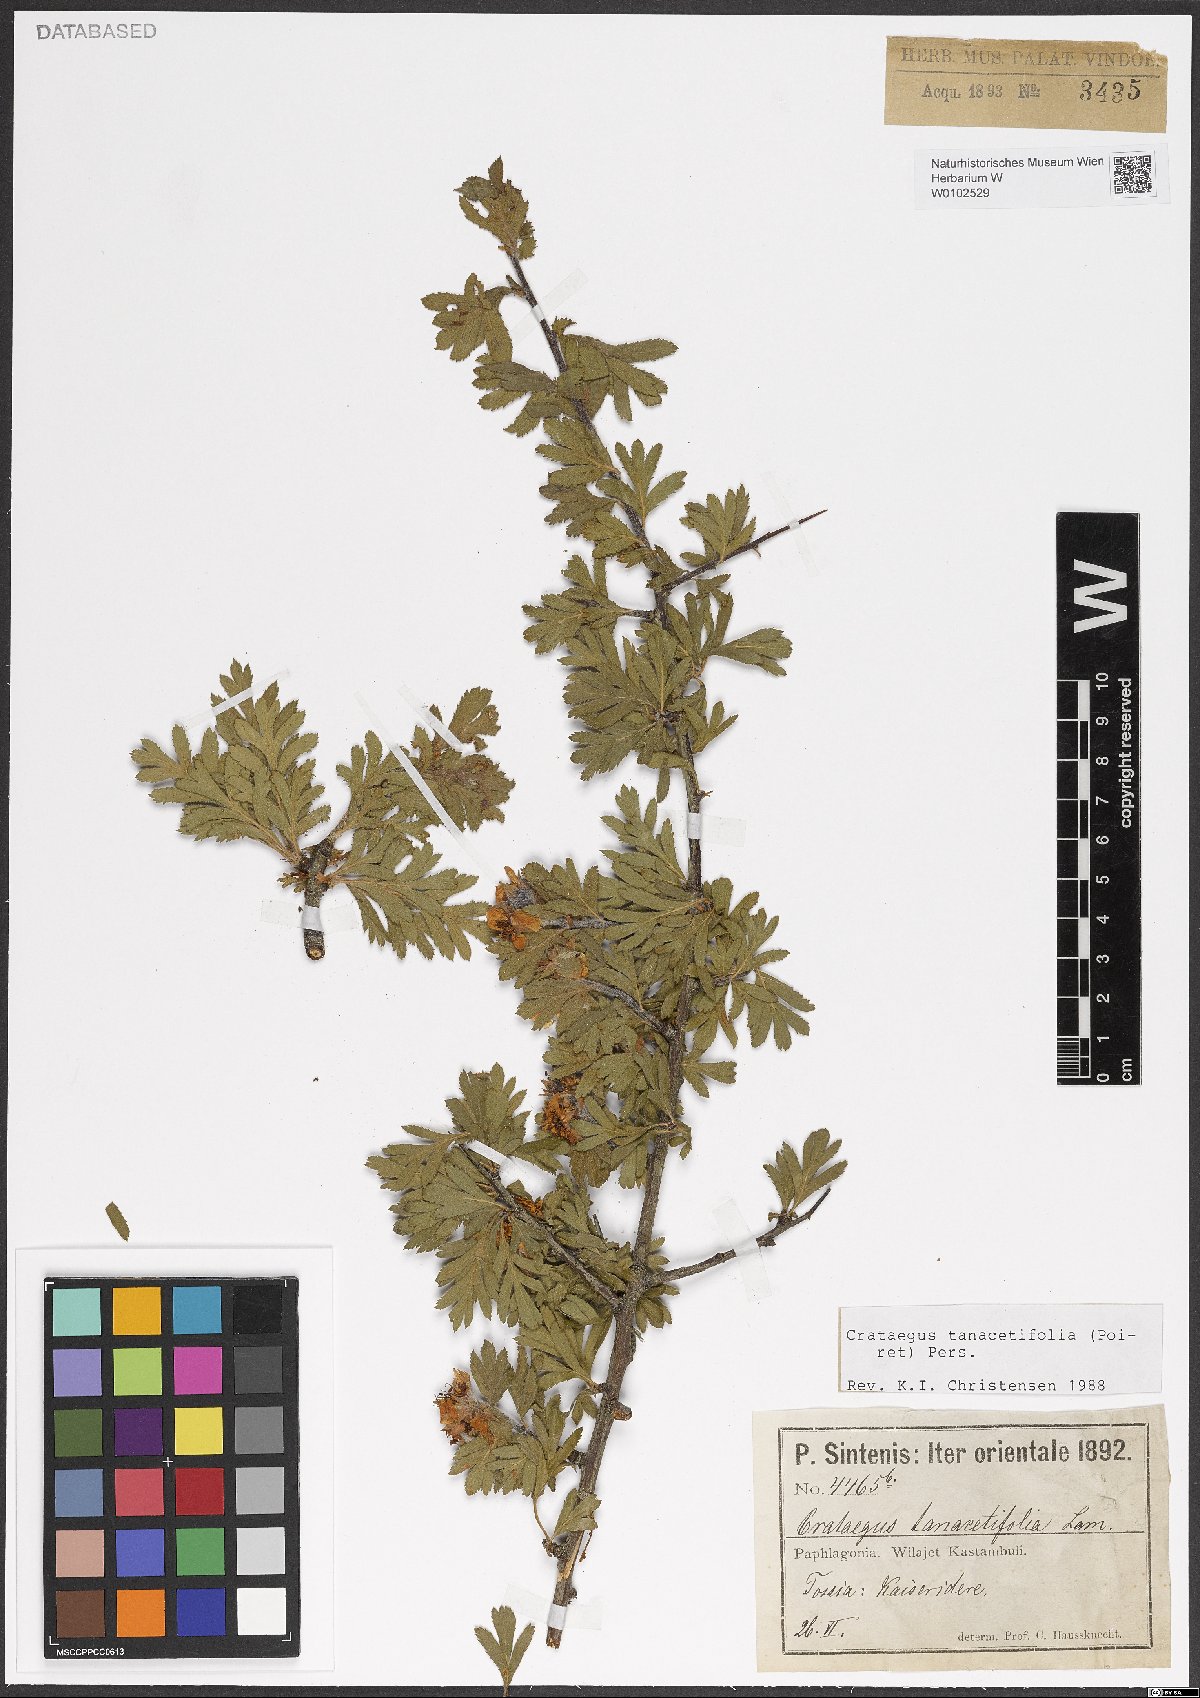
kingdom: Plantae
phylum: Tracheophyta
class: Magnoliopsida
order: Rosales
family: Rosaceae
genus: Crataegus
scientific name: Crataegus tanacetifolia
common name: Tansy-leaved thorn
